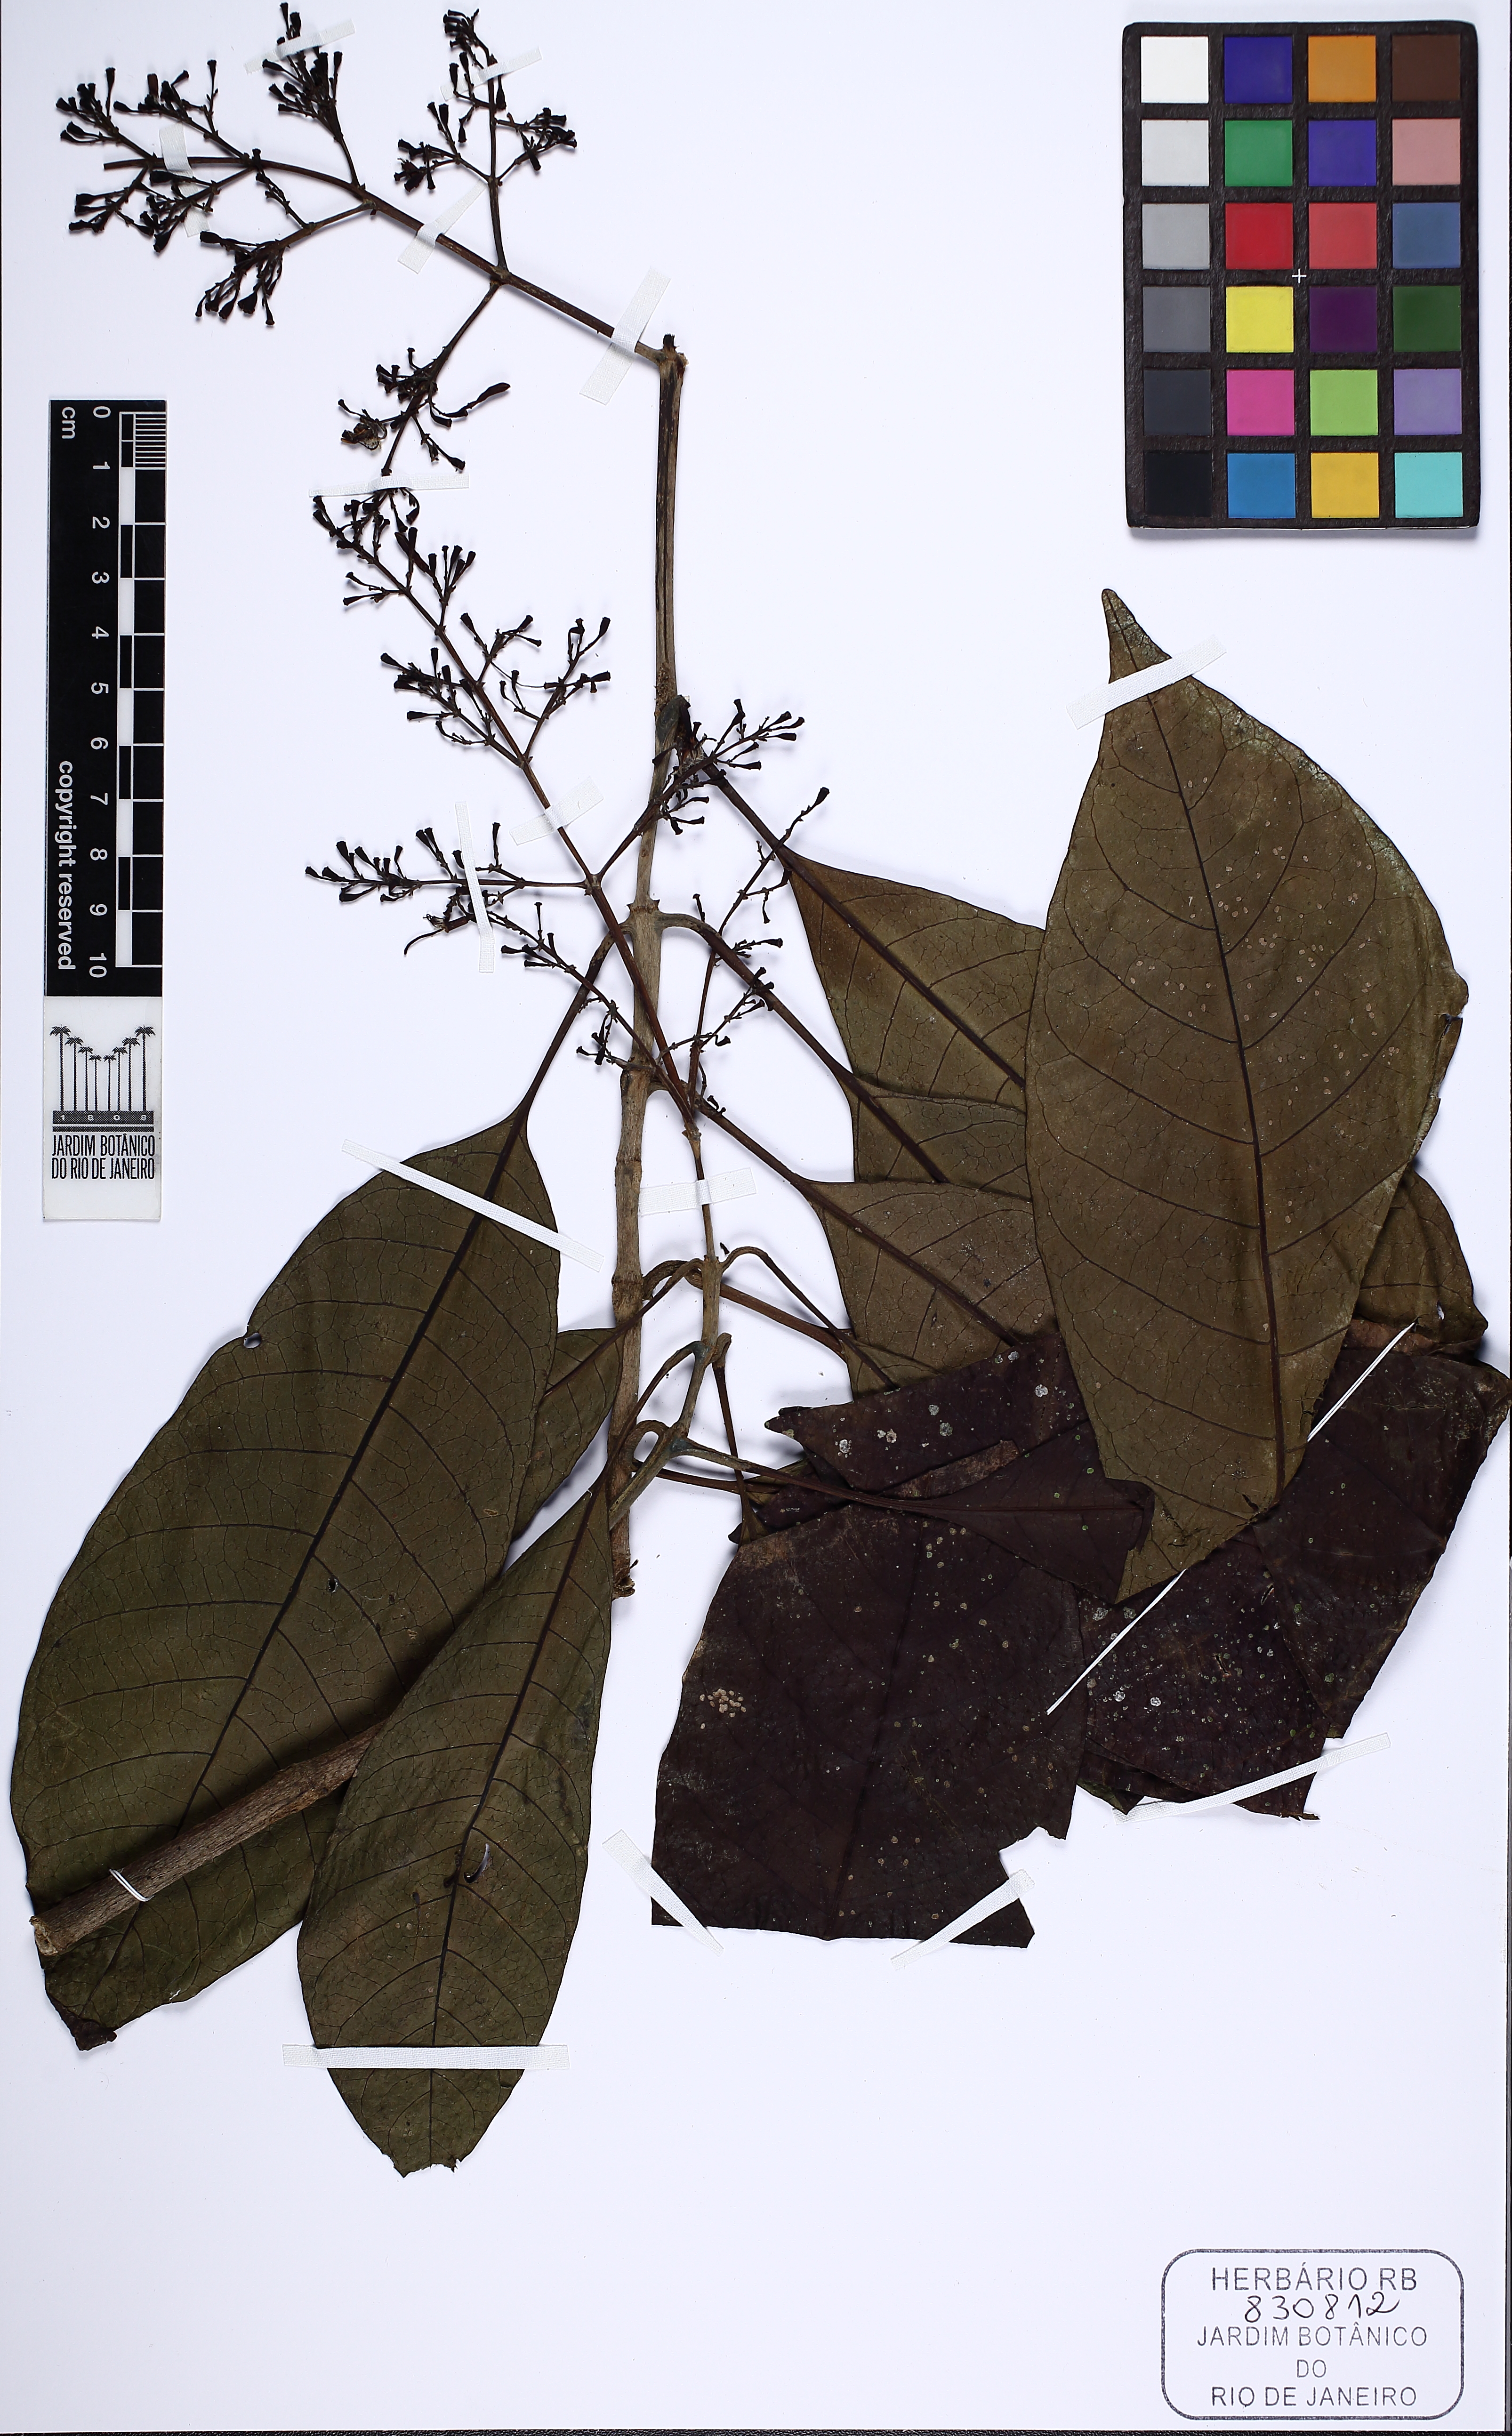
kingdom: Plantae
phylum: Tracheophyta
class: Magnoliopsida
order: Gentianales
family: Rubiaceae
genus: Rudgea
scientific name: Rudgea
